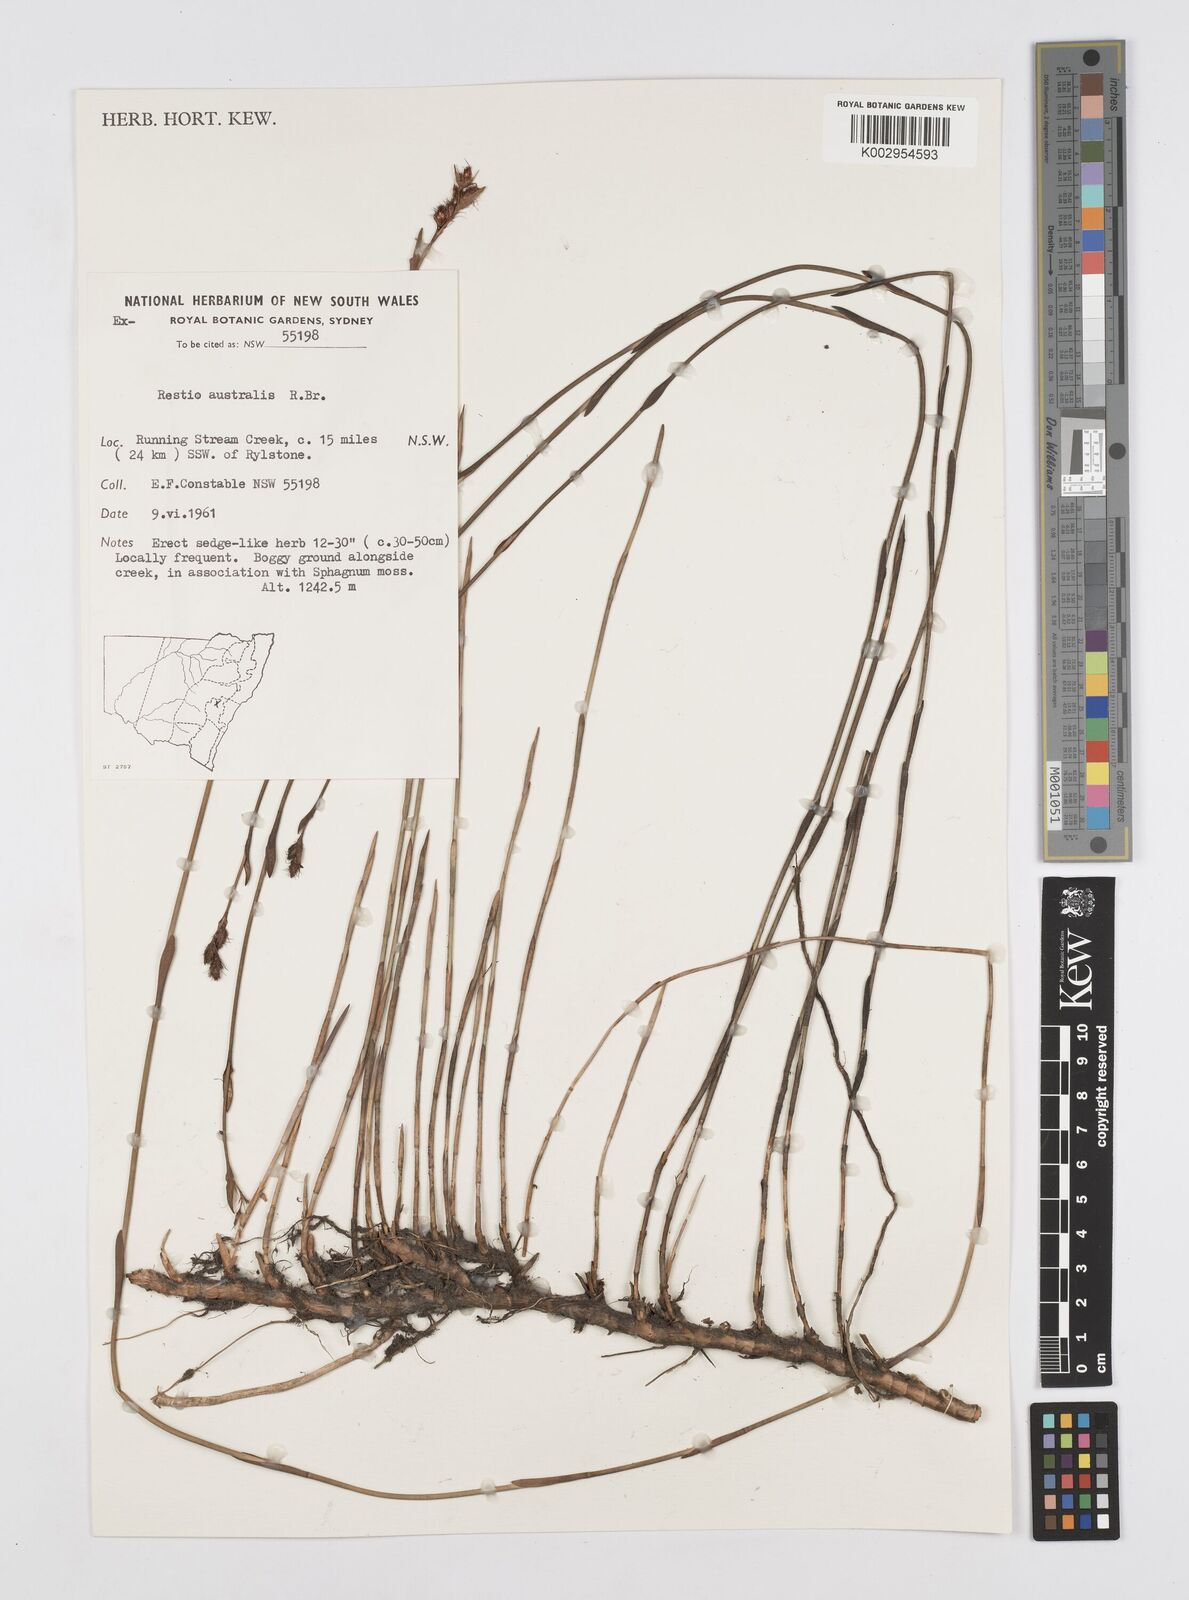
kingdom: Plantae
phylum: Tracheophyta
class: Liliopsida
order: Poales
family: Restionaceae
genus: Baloskion
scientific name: Baloskion australe
